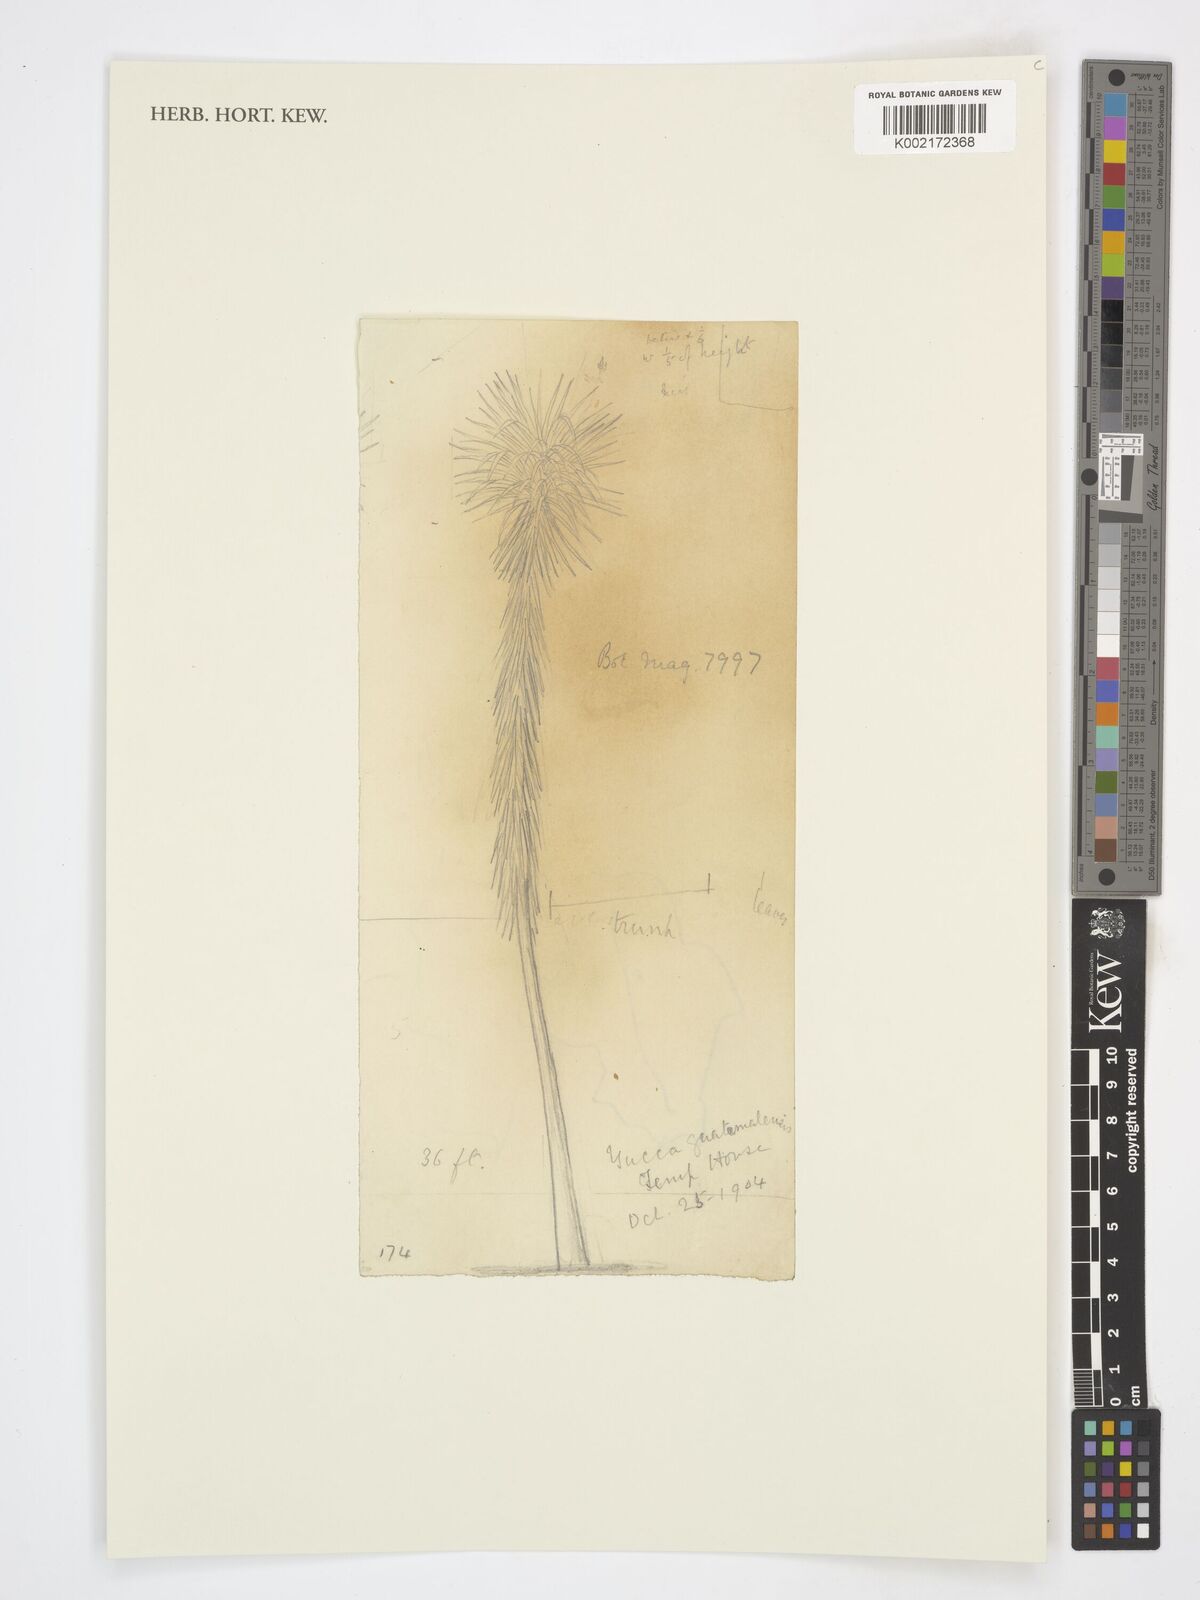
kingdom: Plantae
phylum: Tracheophyta
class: Liliopsida
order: Asparagales
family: Asparagaceae
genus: Yucca
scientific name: Yucca gigantea
